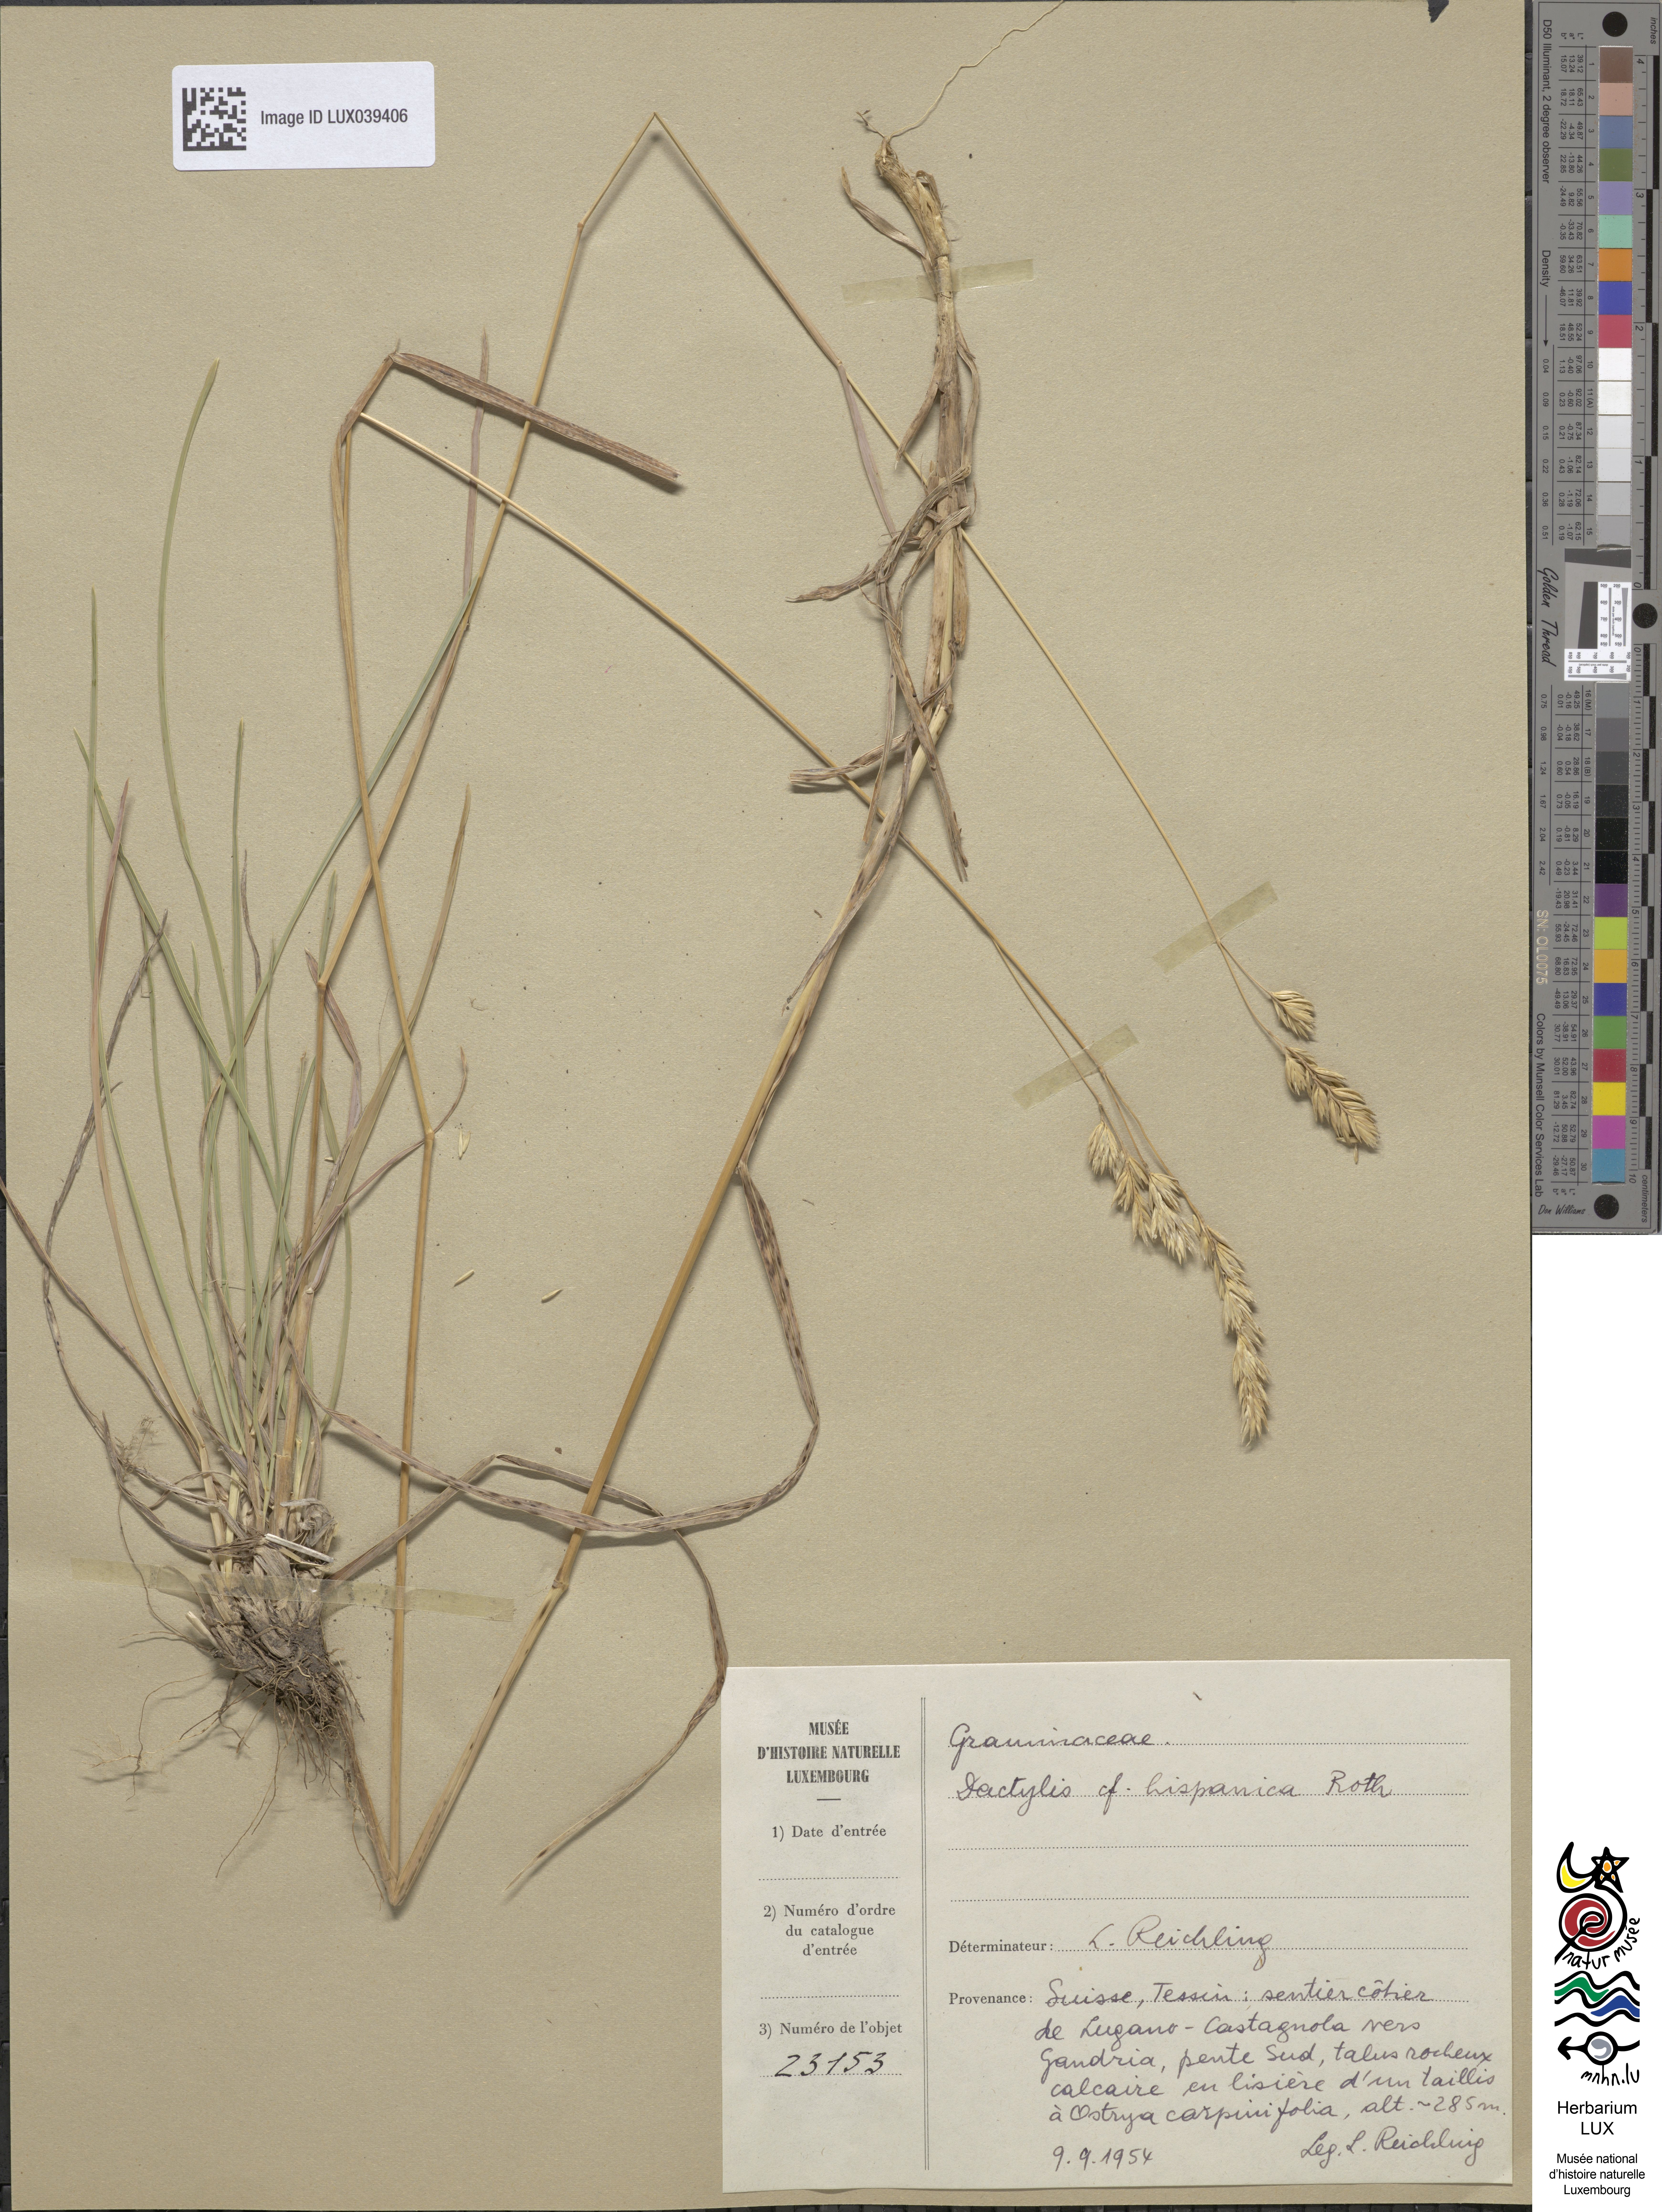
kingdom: Plantae
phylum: Tracheophyta
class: Liliopsida
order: Poales
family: Poaceae
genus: Dactylis
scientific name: Dactylis glomerata
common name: Orchardgrass
